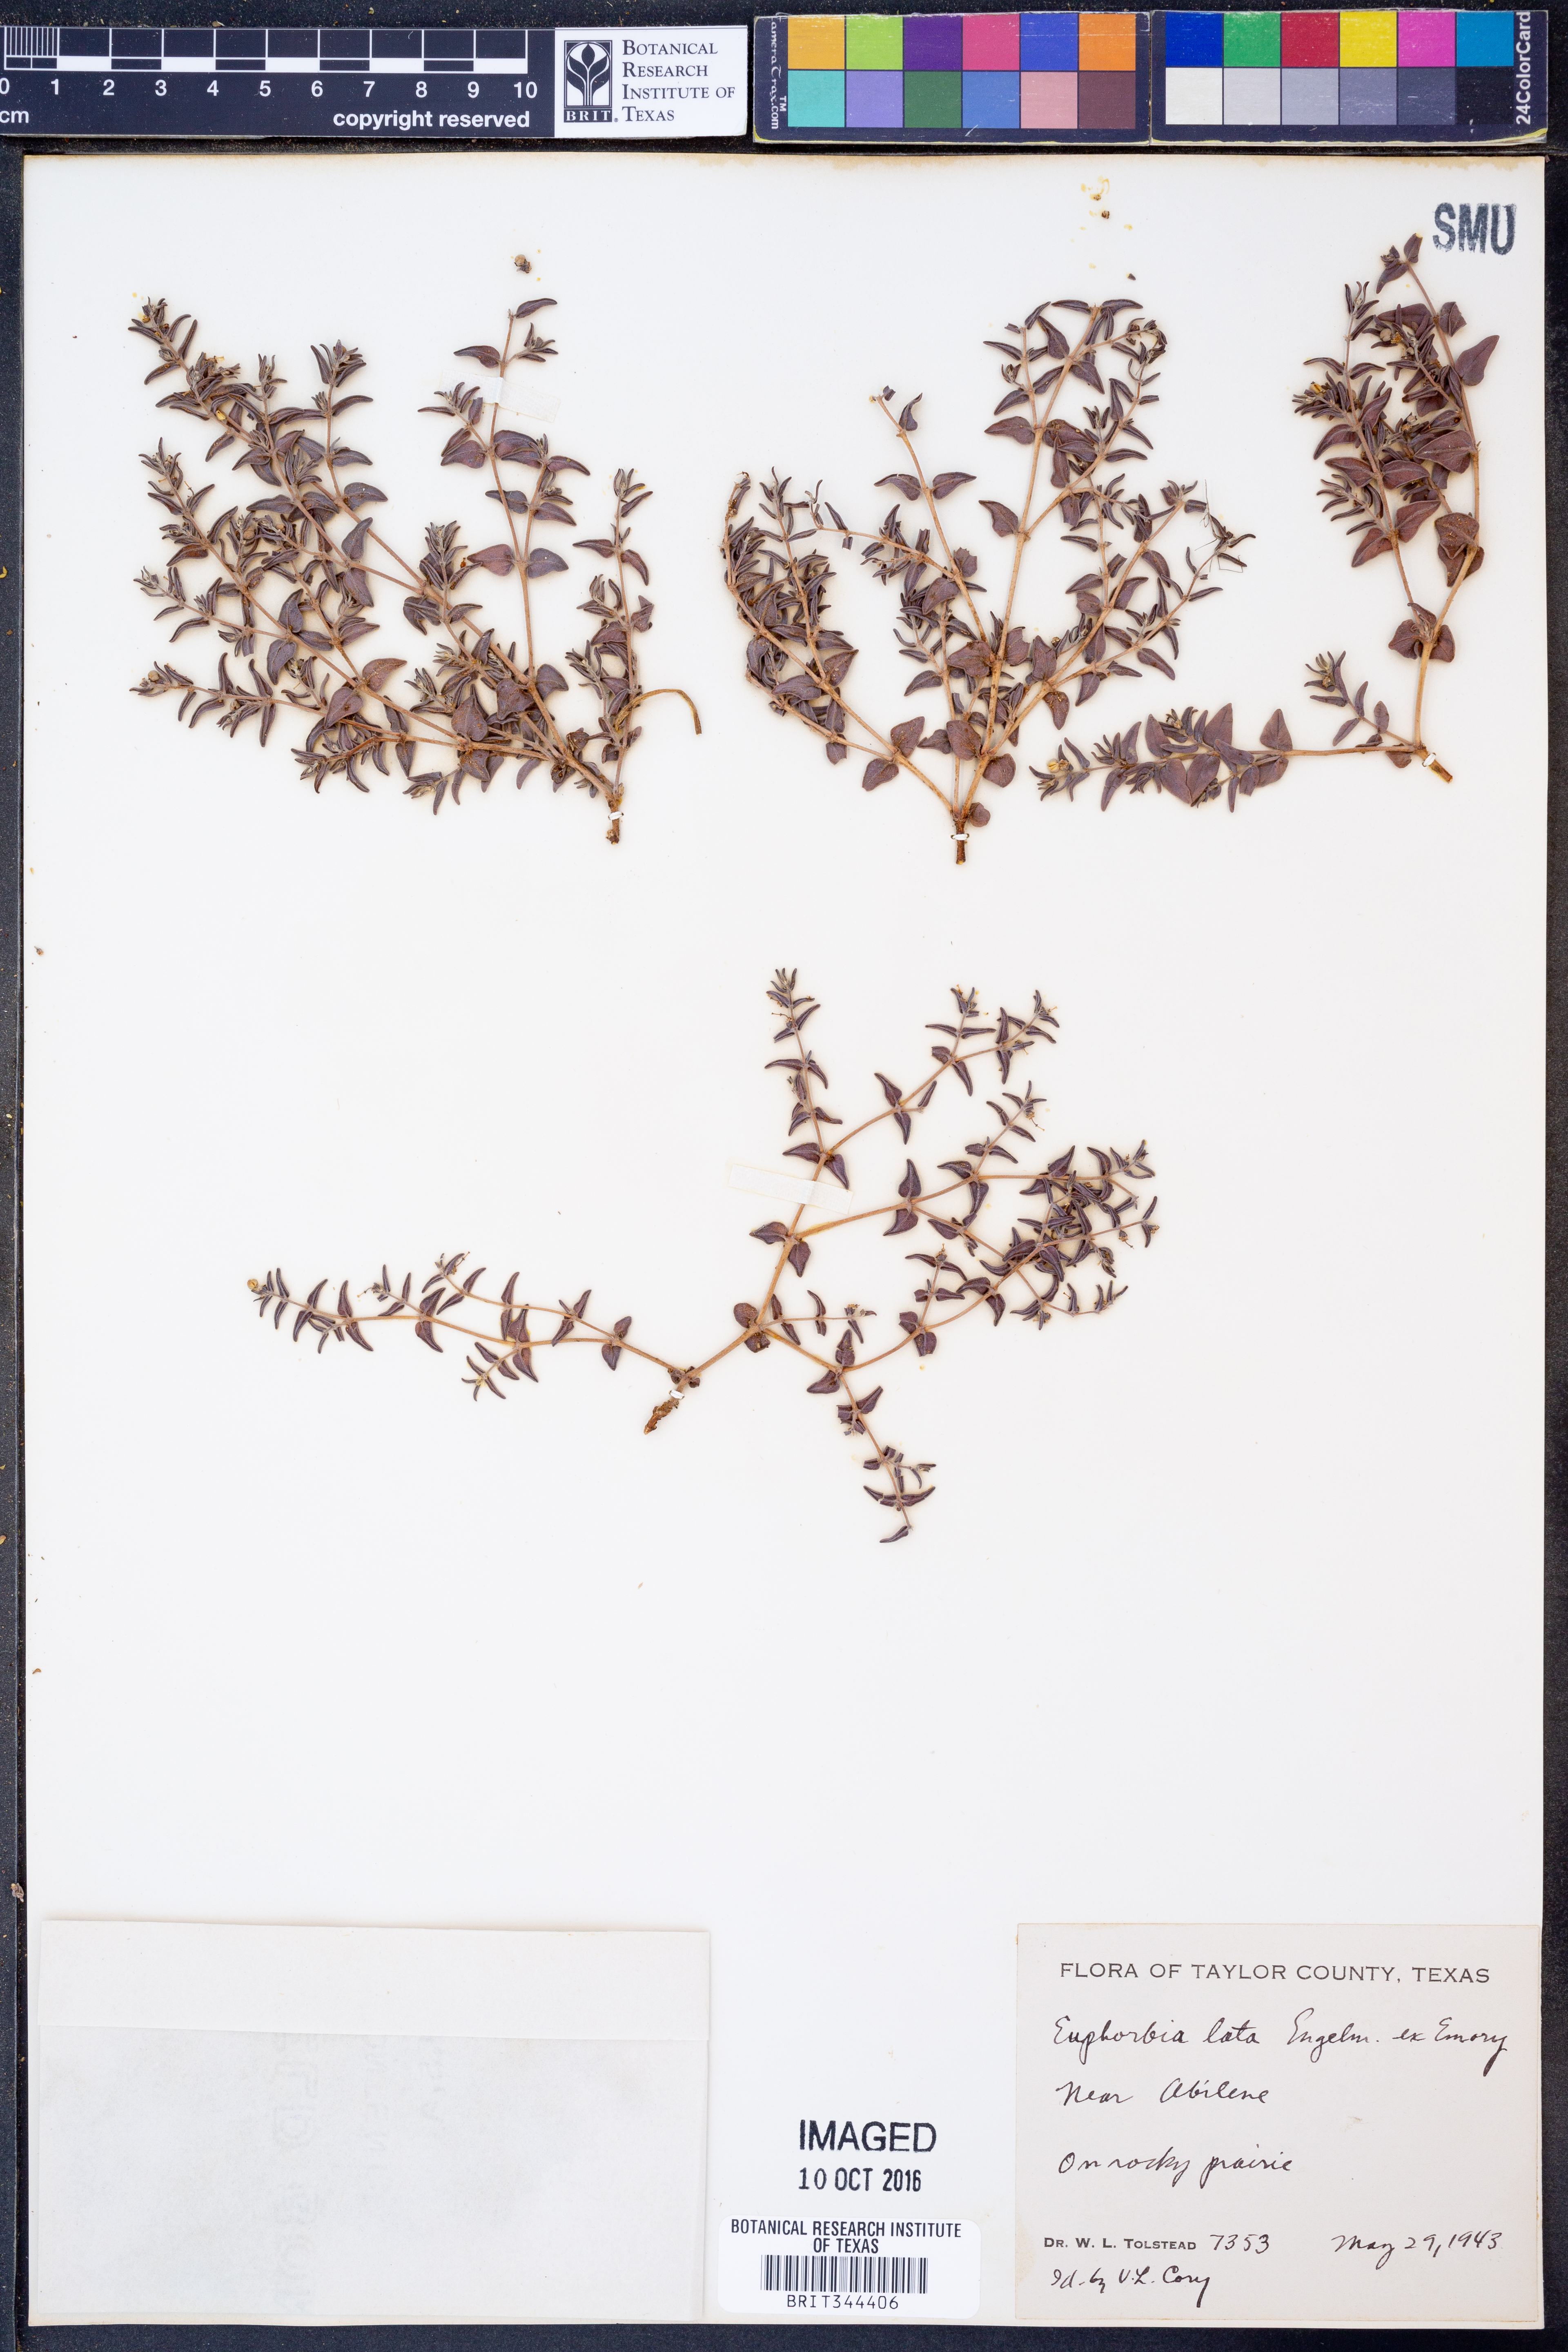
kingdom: Plantae
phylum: Tracheophyta
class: Magnoliopsida
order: Malpighiales
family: Euphorbiaceae
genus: Euphorbia
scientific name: Euphorbia lata
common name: Hoary euphorbia
